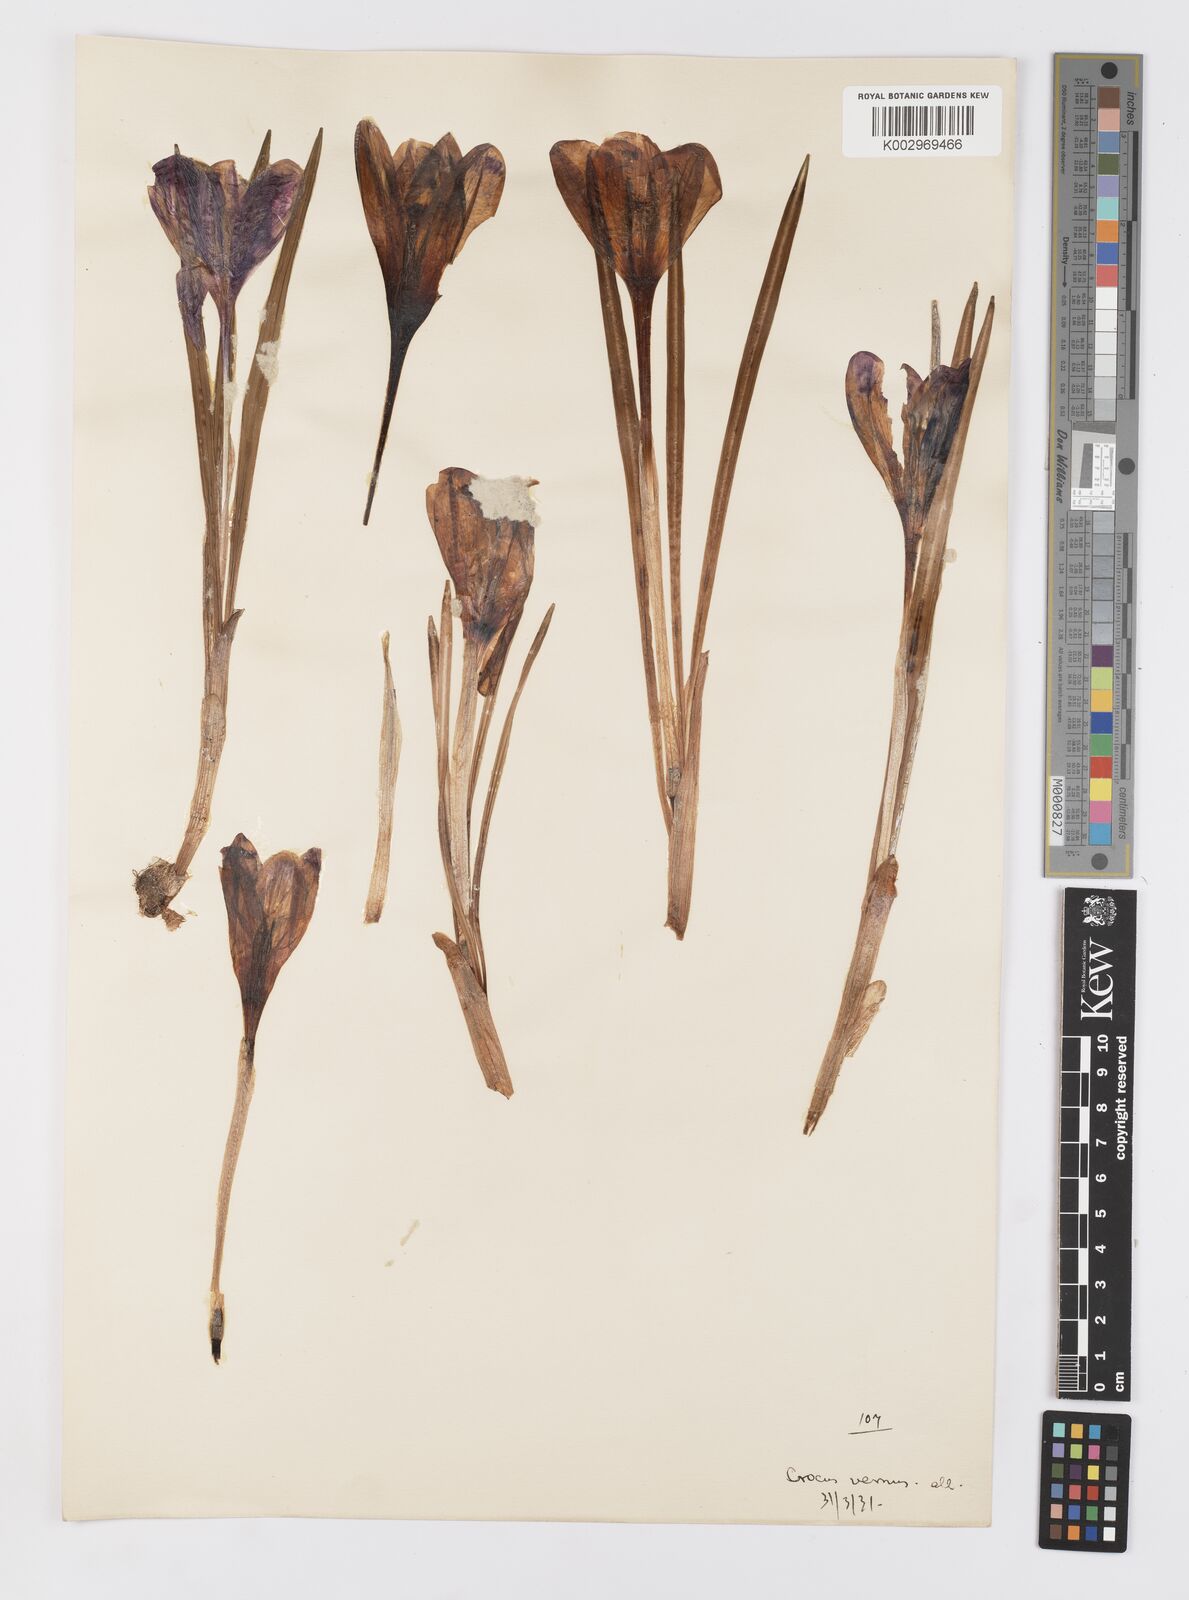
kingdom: Plantae
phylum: Tracheophyta
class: Liliopsida
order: Asparagales
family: Iridaceae
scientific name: Iridaceae
